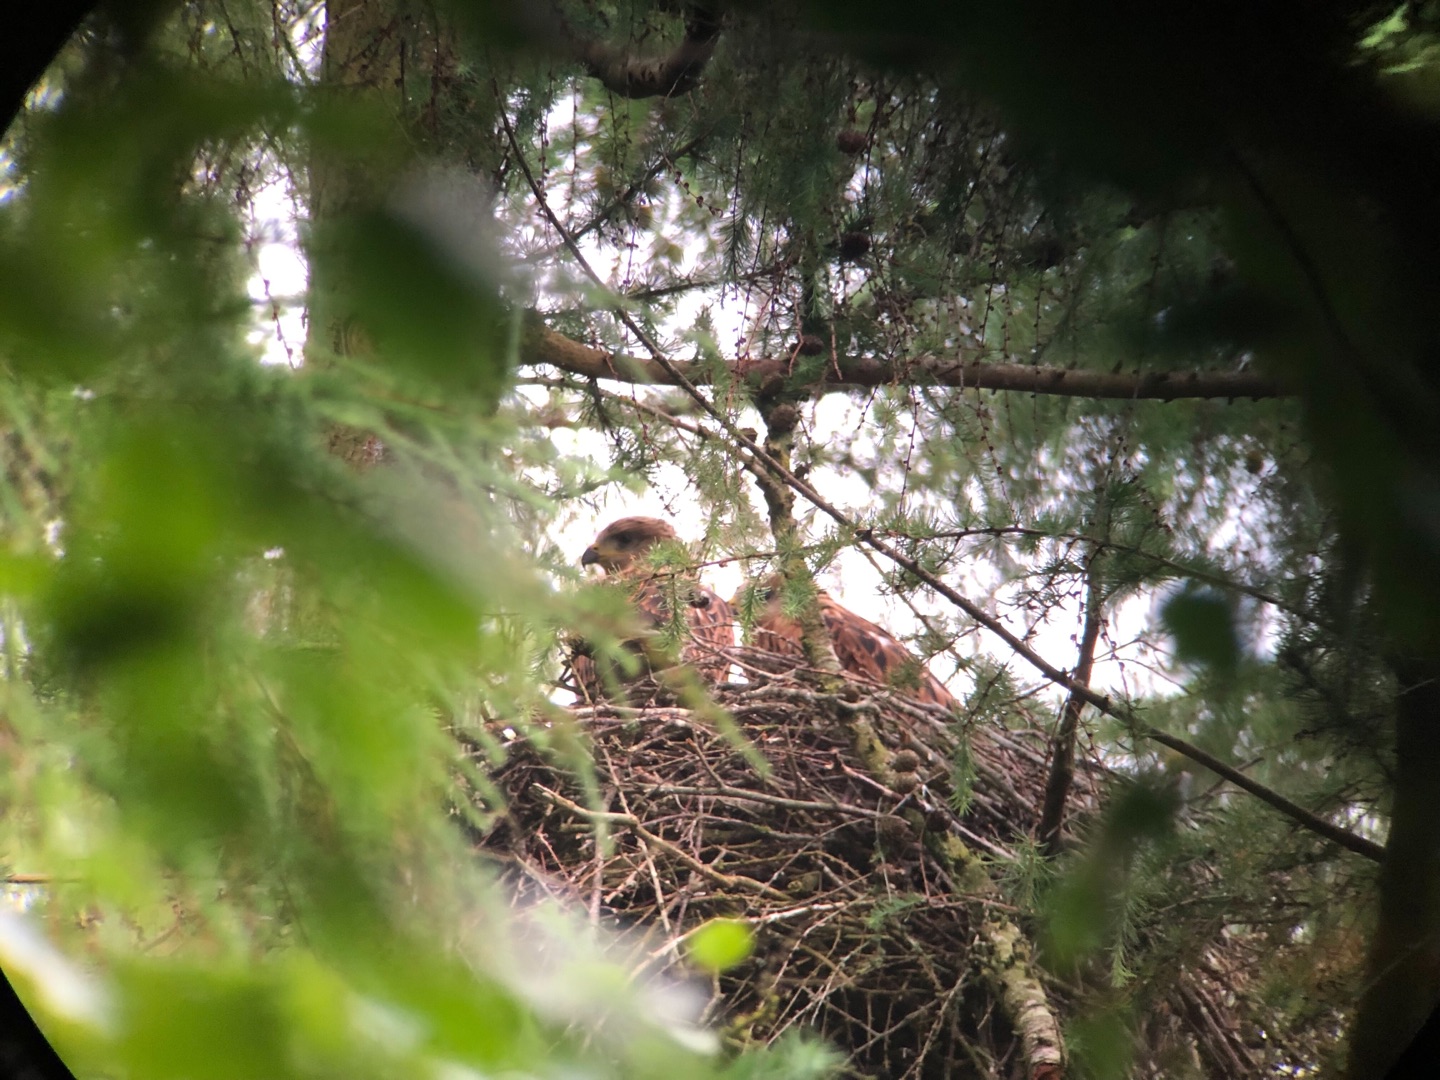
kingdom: Animalia
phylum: Chordata
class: Aves
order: Accipitriformes
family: Accipitridae
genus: Milvus
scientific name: Milvus milvus
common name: Rød glente
